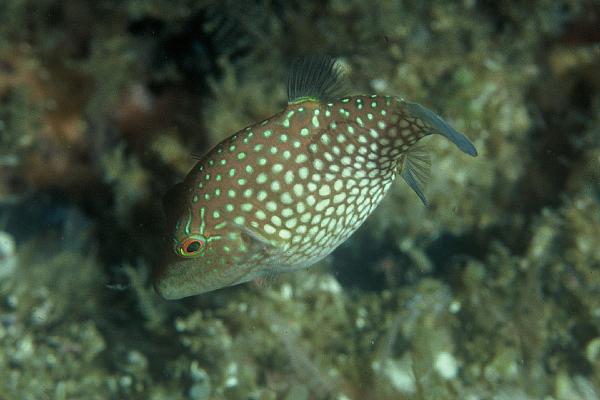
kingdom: Animalia
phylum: Chordata
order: Tetraodontiformes
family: Tetraodontidae
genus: Canthigaster
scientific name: Canthigaster janthinoptera
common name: Honeycomb toby
